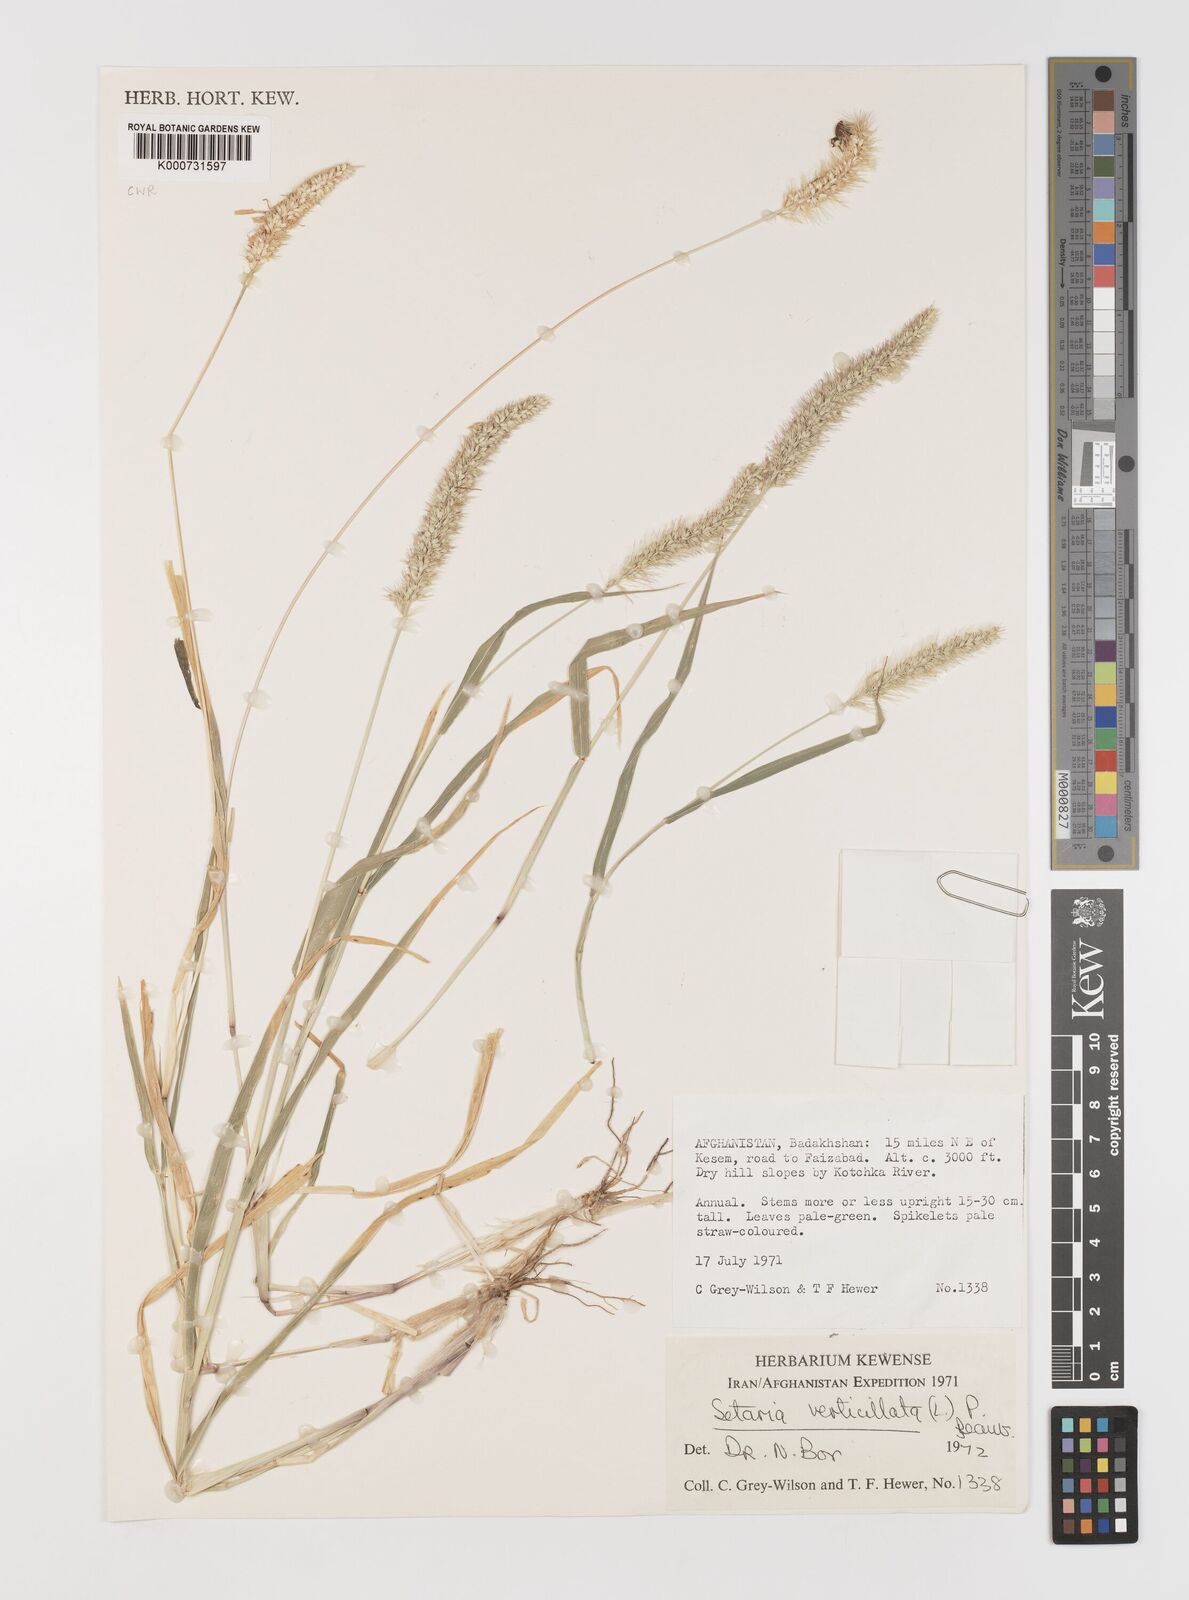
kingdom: Plantae
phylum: Tracheophyta
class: Liliopsida
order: Poales
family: Poaceae
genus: Setaria
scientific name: Setaria verticillata
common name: Hooked bristlegrass
